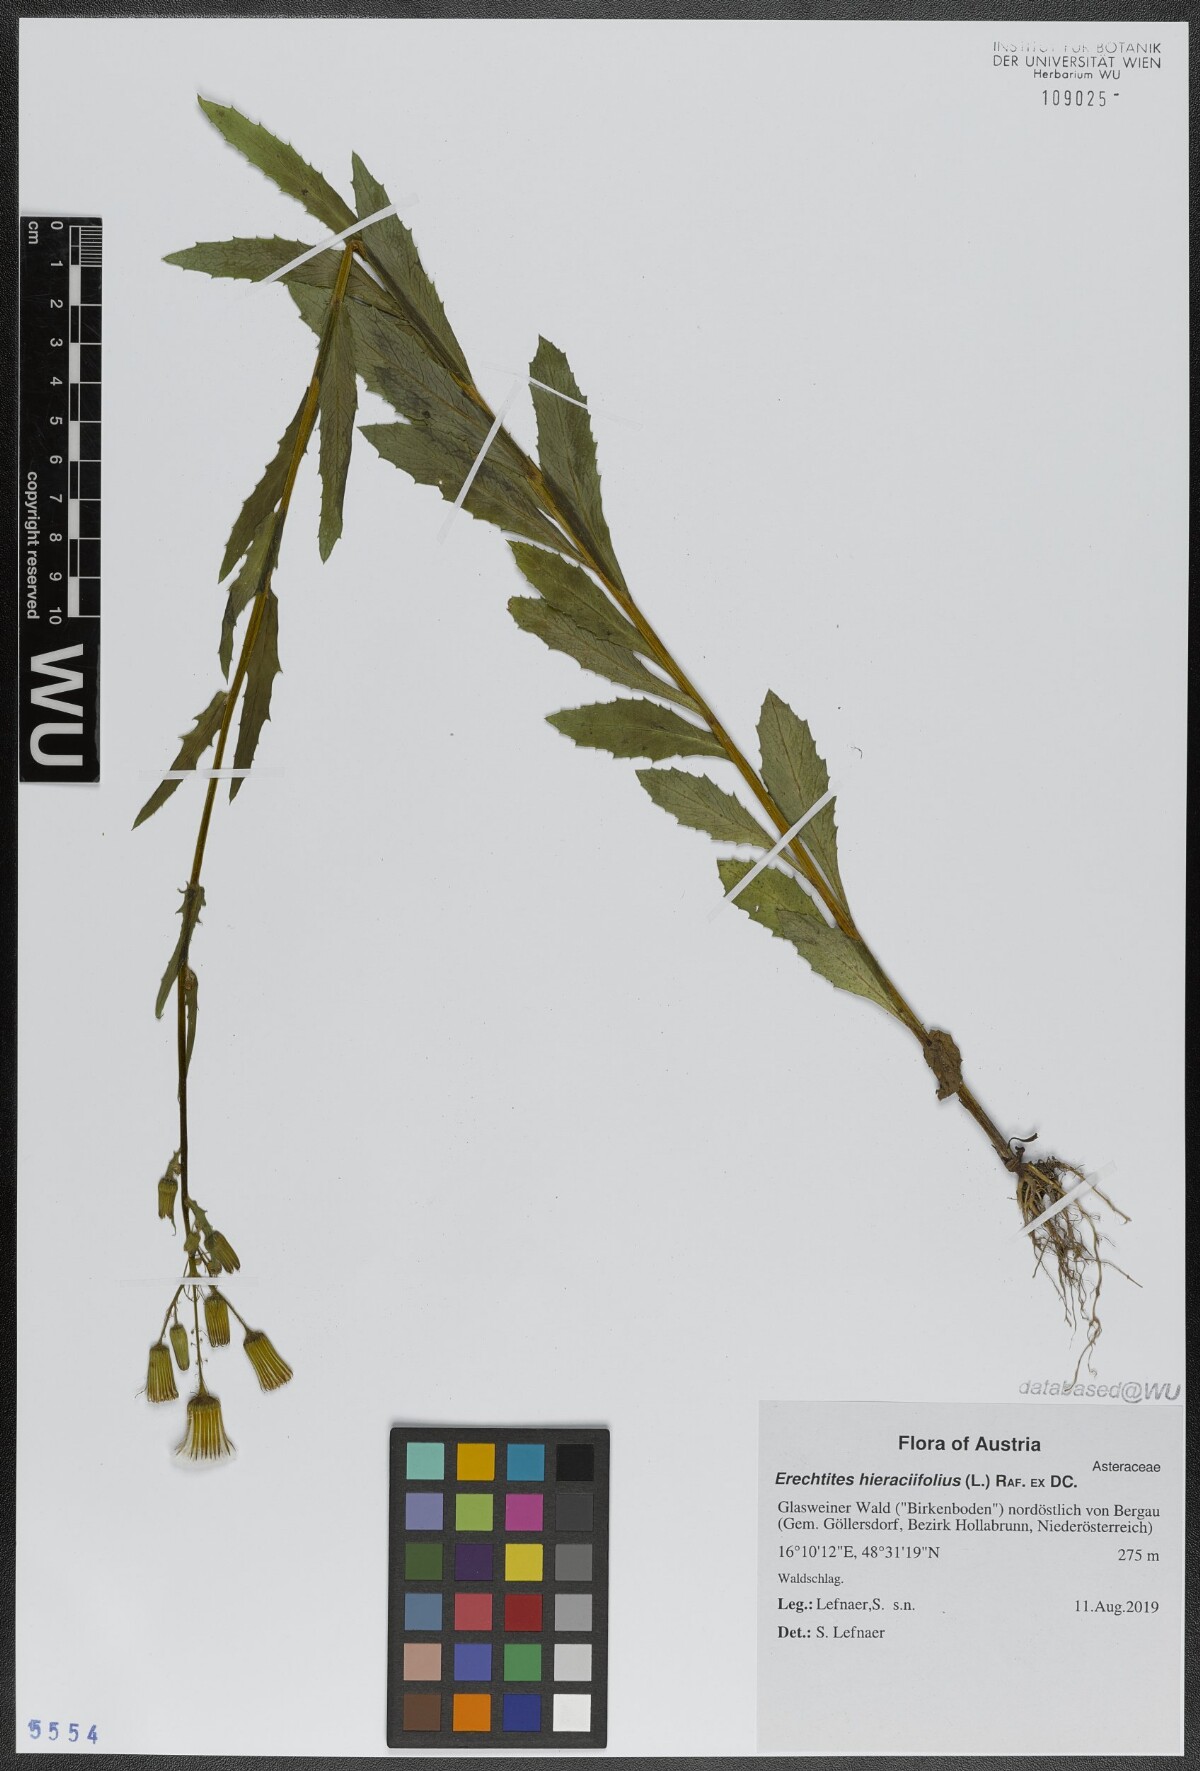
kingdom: Plantae
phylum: Tracheophyta
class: Magnoliopsida
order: Asterales
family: Asteraceae
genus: Erechtites
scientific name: Erechtites hieraciifolius
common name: American burnweed
